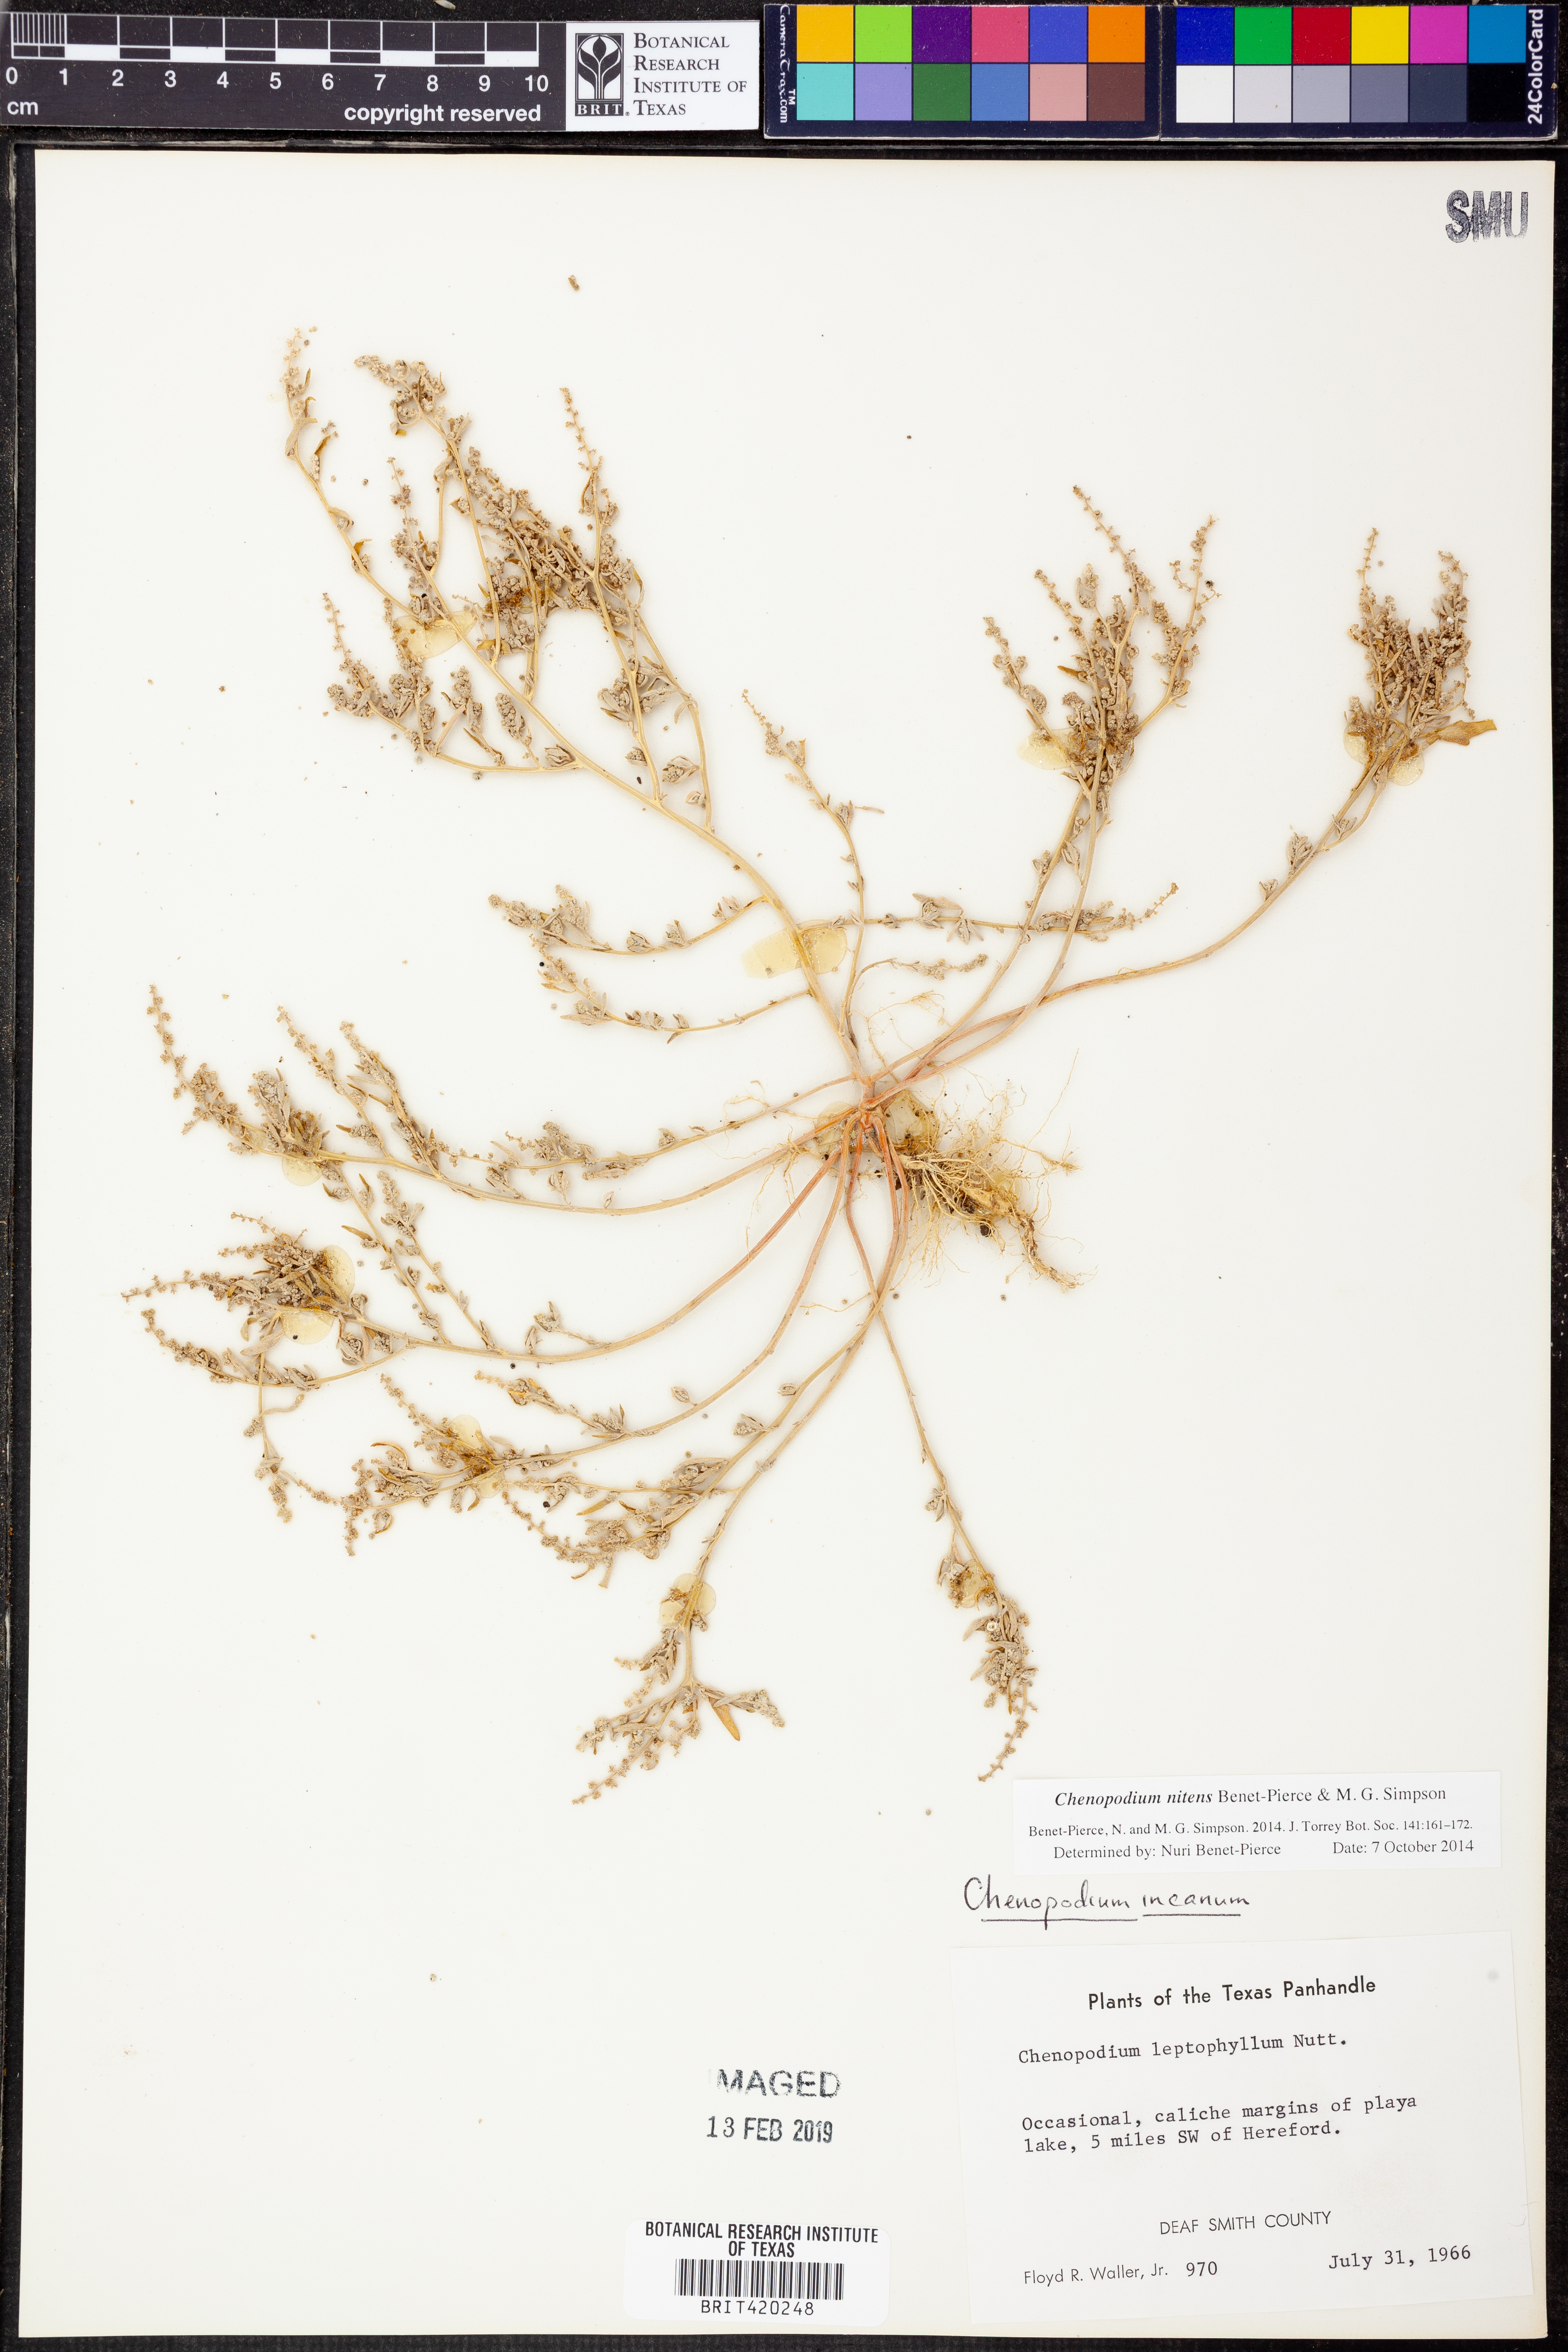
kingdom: Plantae
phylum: Tracheophyta
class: Magnoliopsida
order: Caryophyllales
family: Amaranthaceae
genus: Chenopodium
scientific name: Chenopodium nitens
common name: Shiny-seed goosefoot
